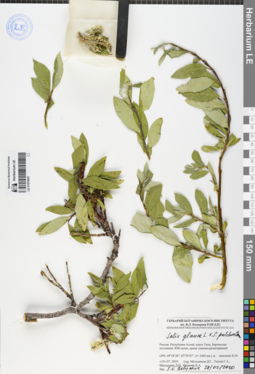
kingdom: Plantae
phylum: Tracheophyta
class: Magnoliopsida
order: Malpighiales
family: Salicaceae
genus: Salix
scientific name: Salix glauca
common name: Glaucous willow
